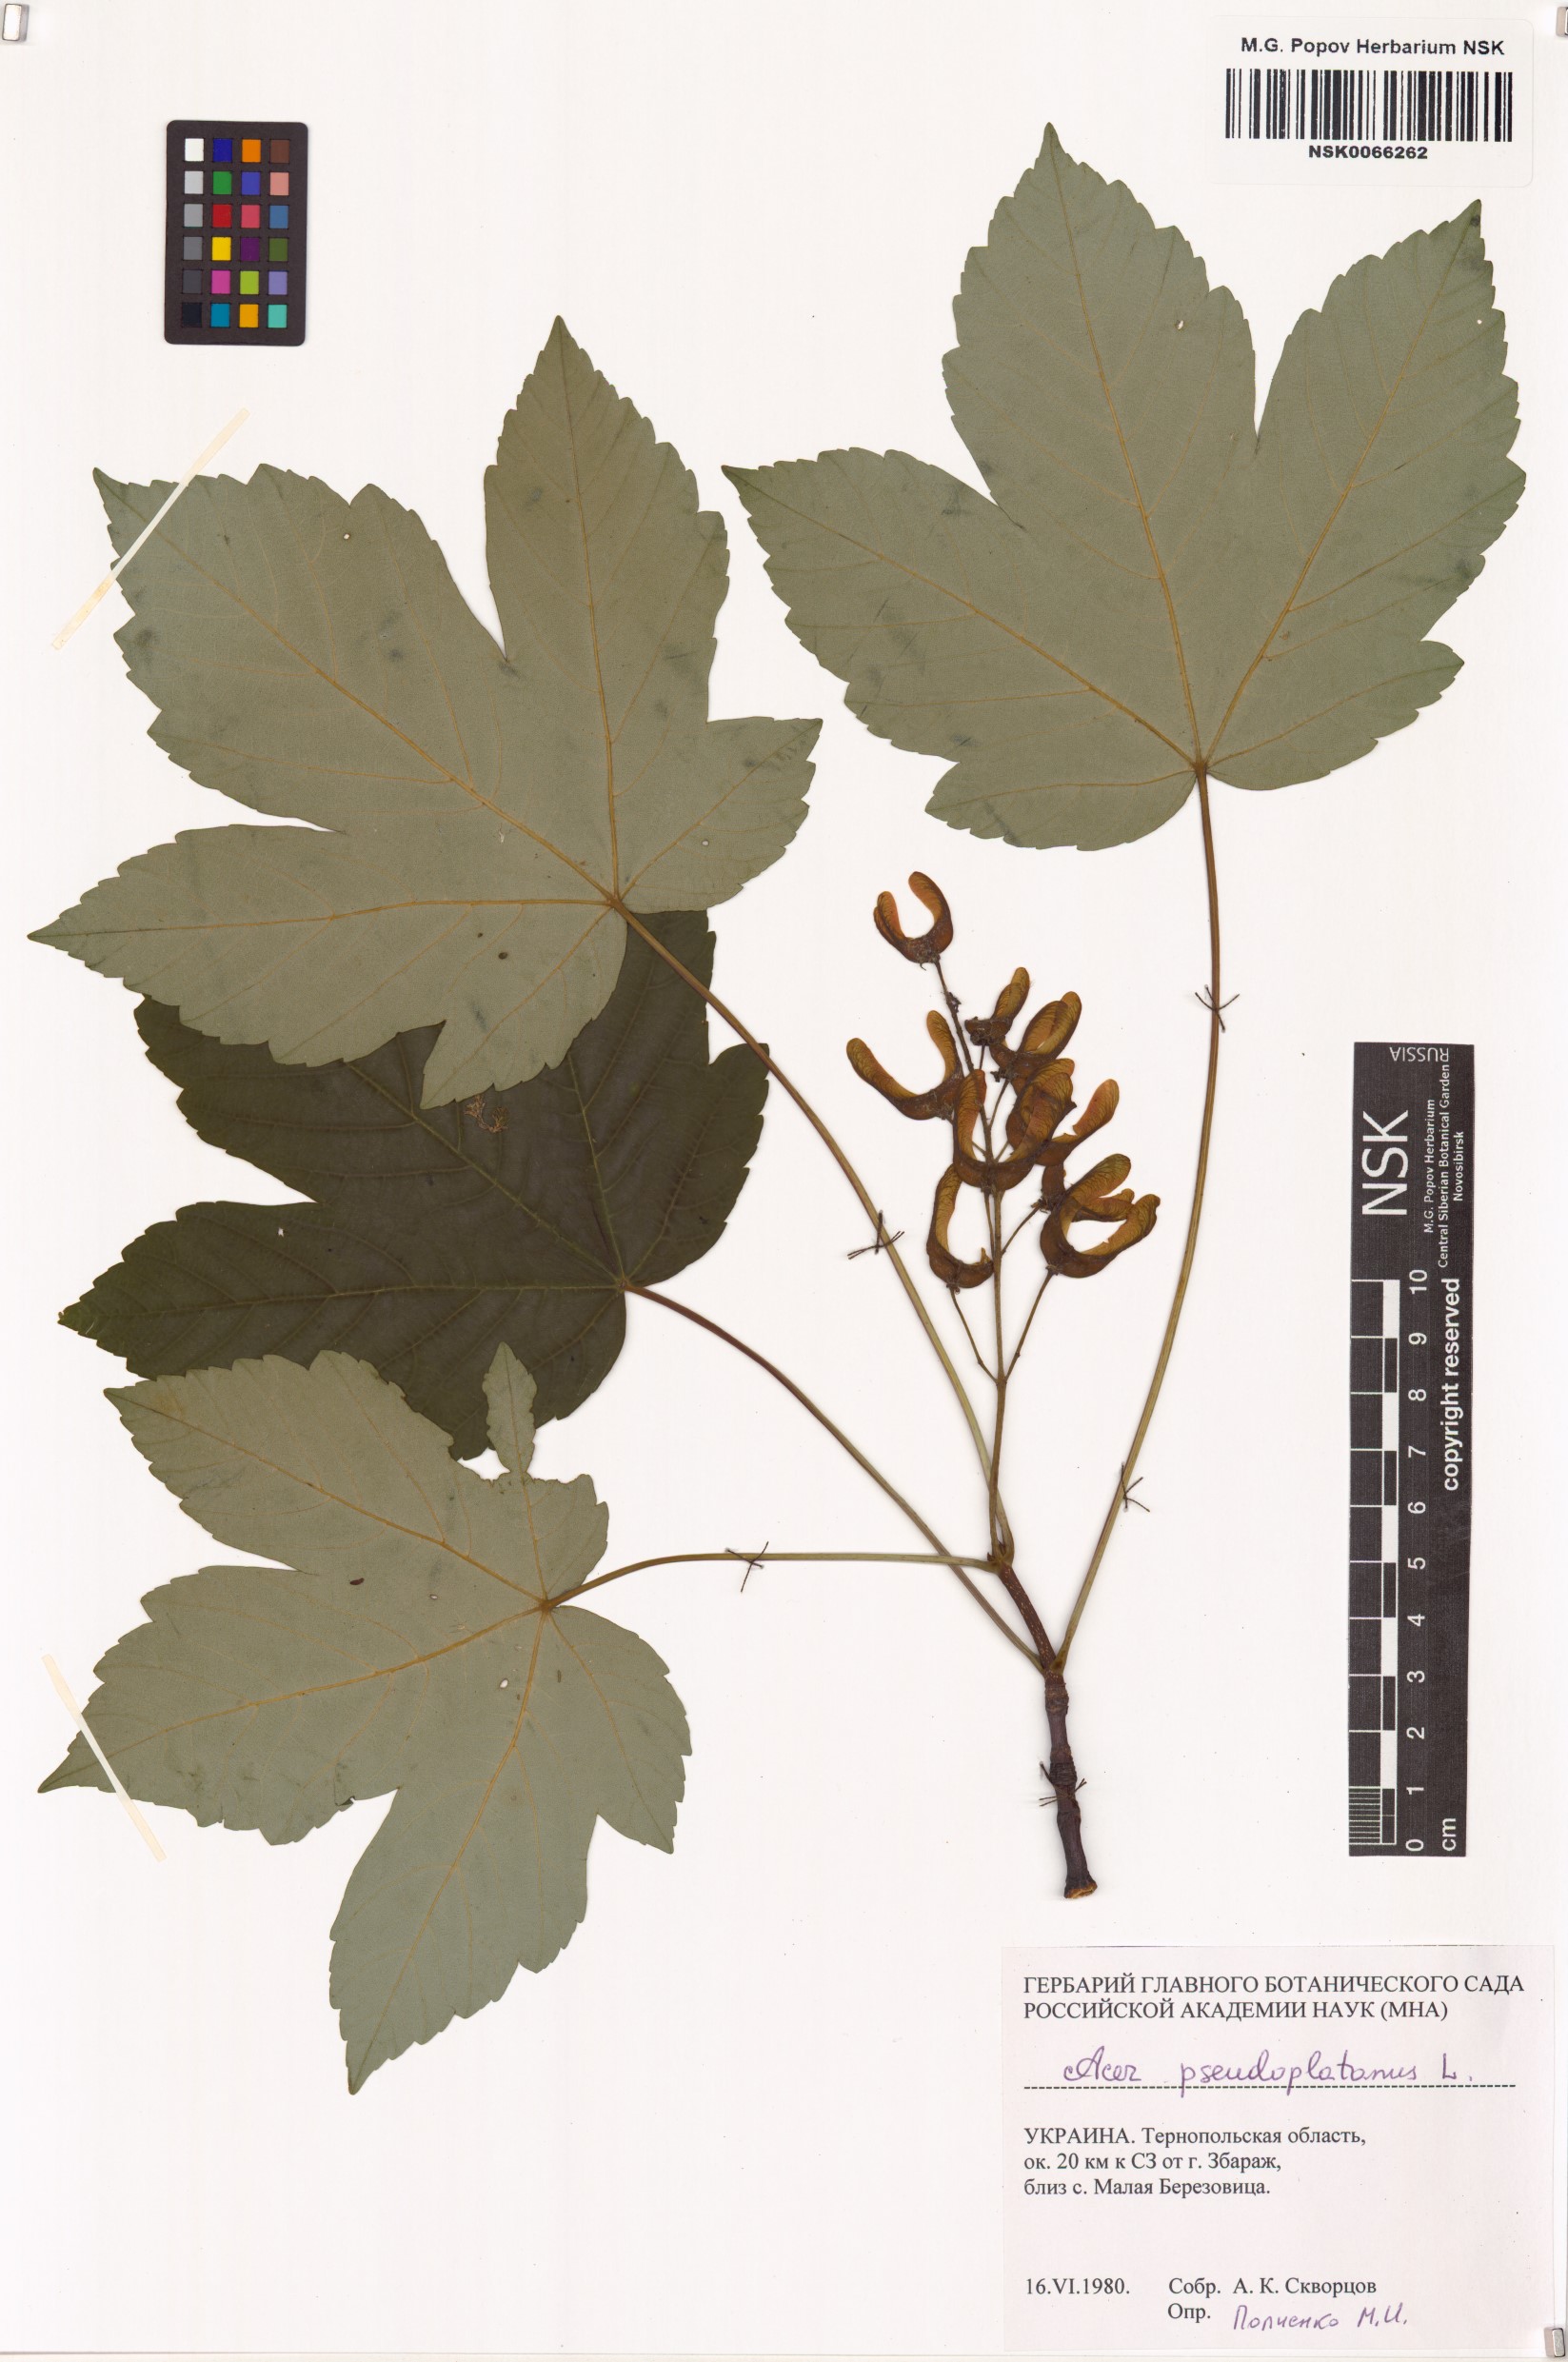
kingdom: Plantae
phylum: Tracheophyta
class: Magnoliopsida
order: Sapindales
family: Sapindaceae
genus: Acer
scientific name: Acer pseudoplatanus
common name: Sycamore
